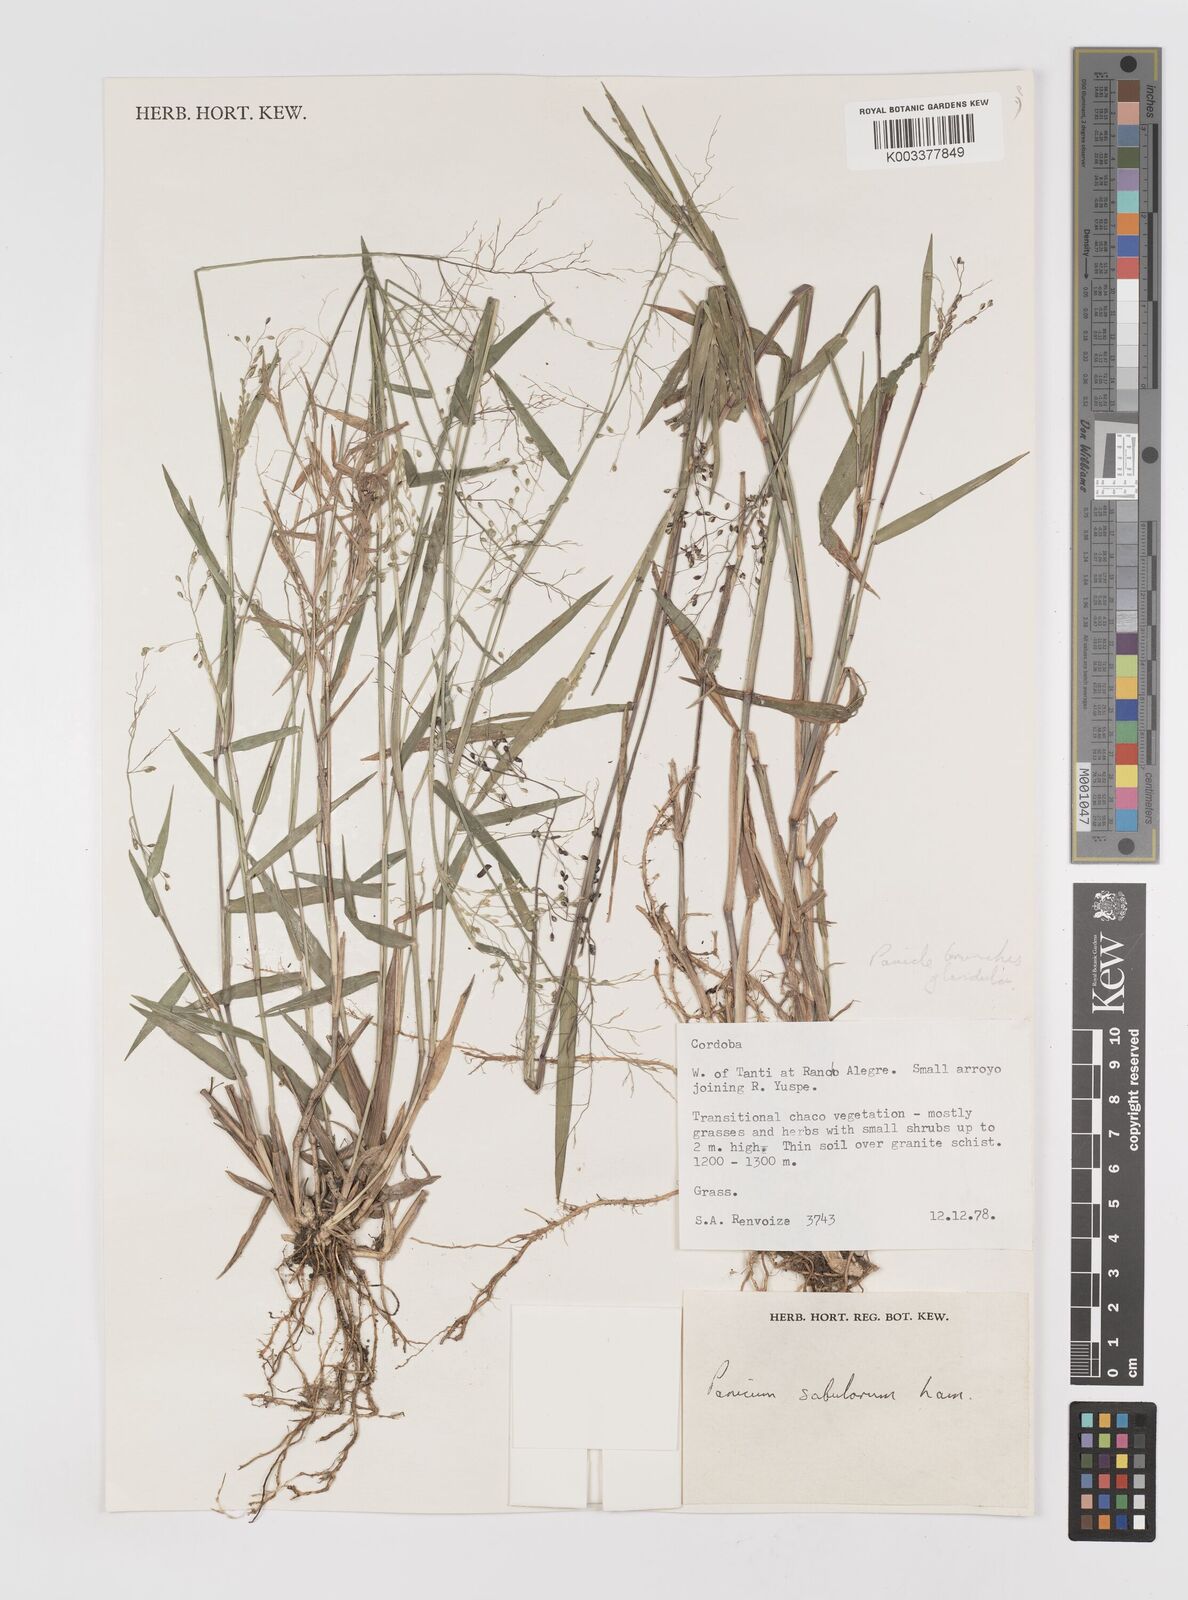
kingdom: Plantae
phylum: Tracheophyta
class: Liliopsida
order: Poales
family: Poaceae
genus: Dichanthelium
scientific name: Dichanthelium stigmosum
